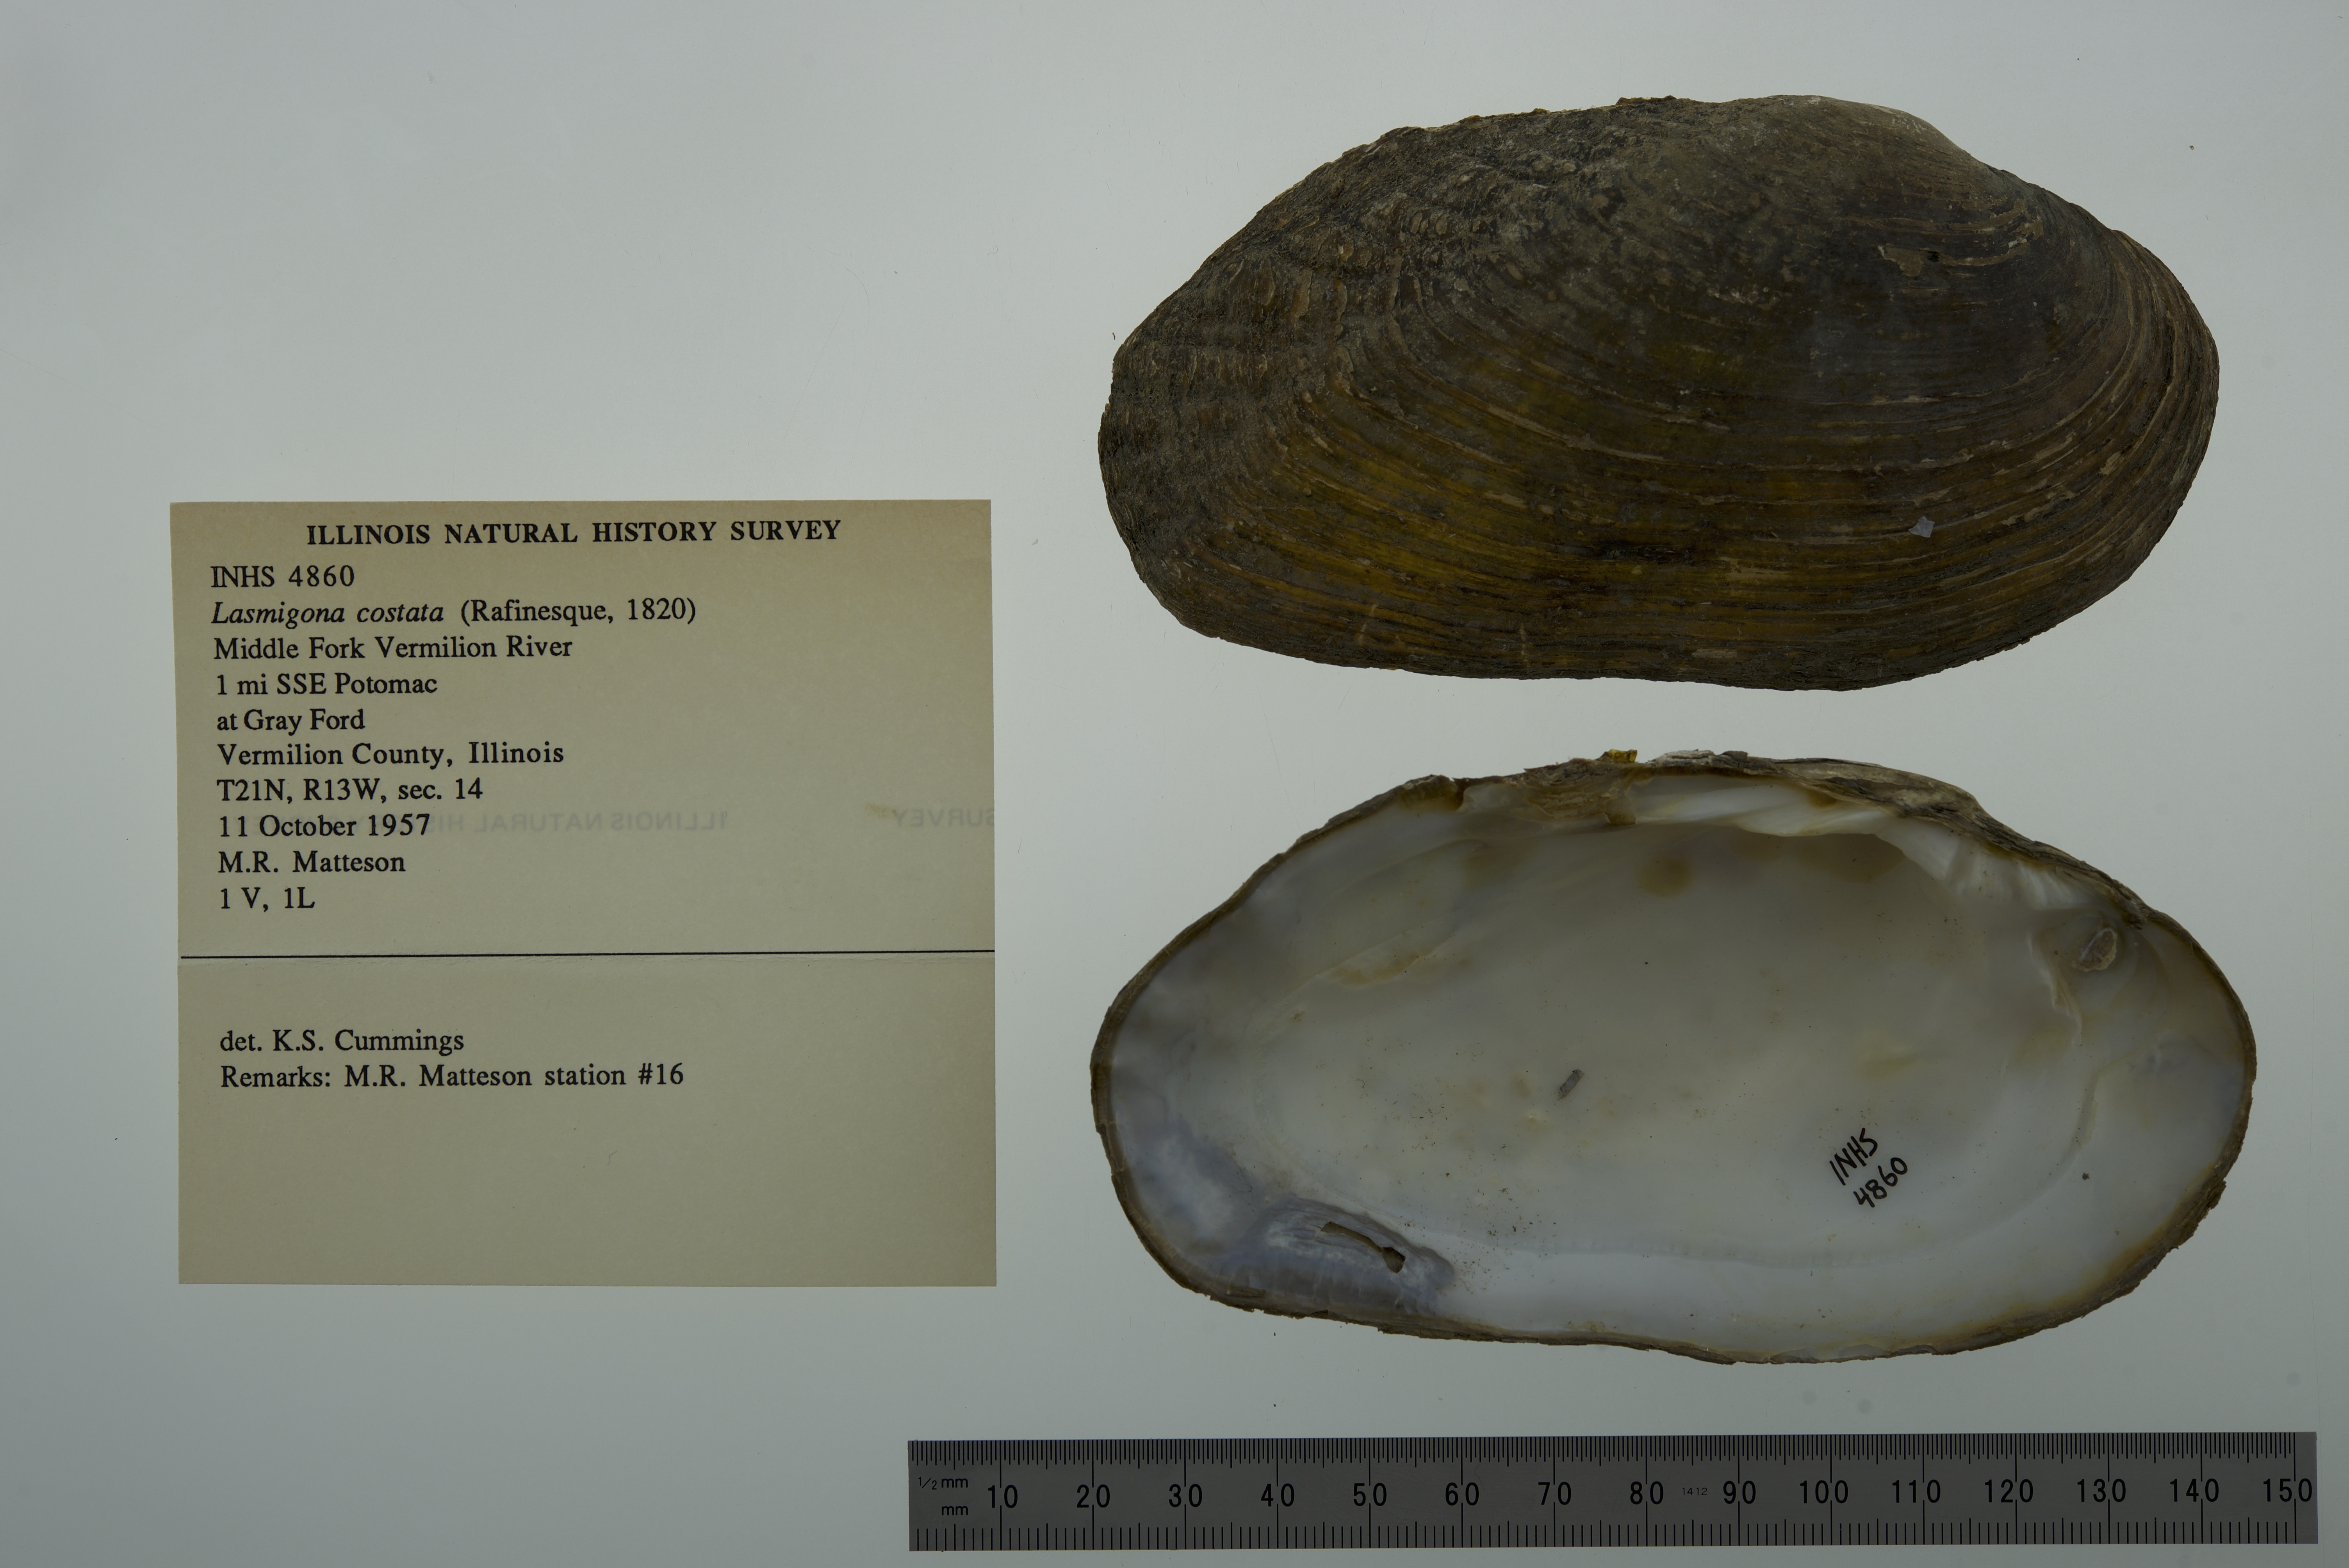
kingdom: Animalia
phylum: Mollusca
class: Bivalvia
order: Unionida
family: Unionidae
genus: Lasmigona
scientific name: Lasmigona costata
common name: Flutedshell
